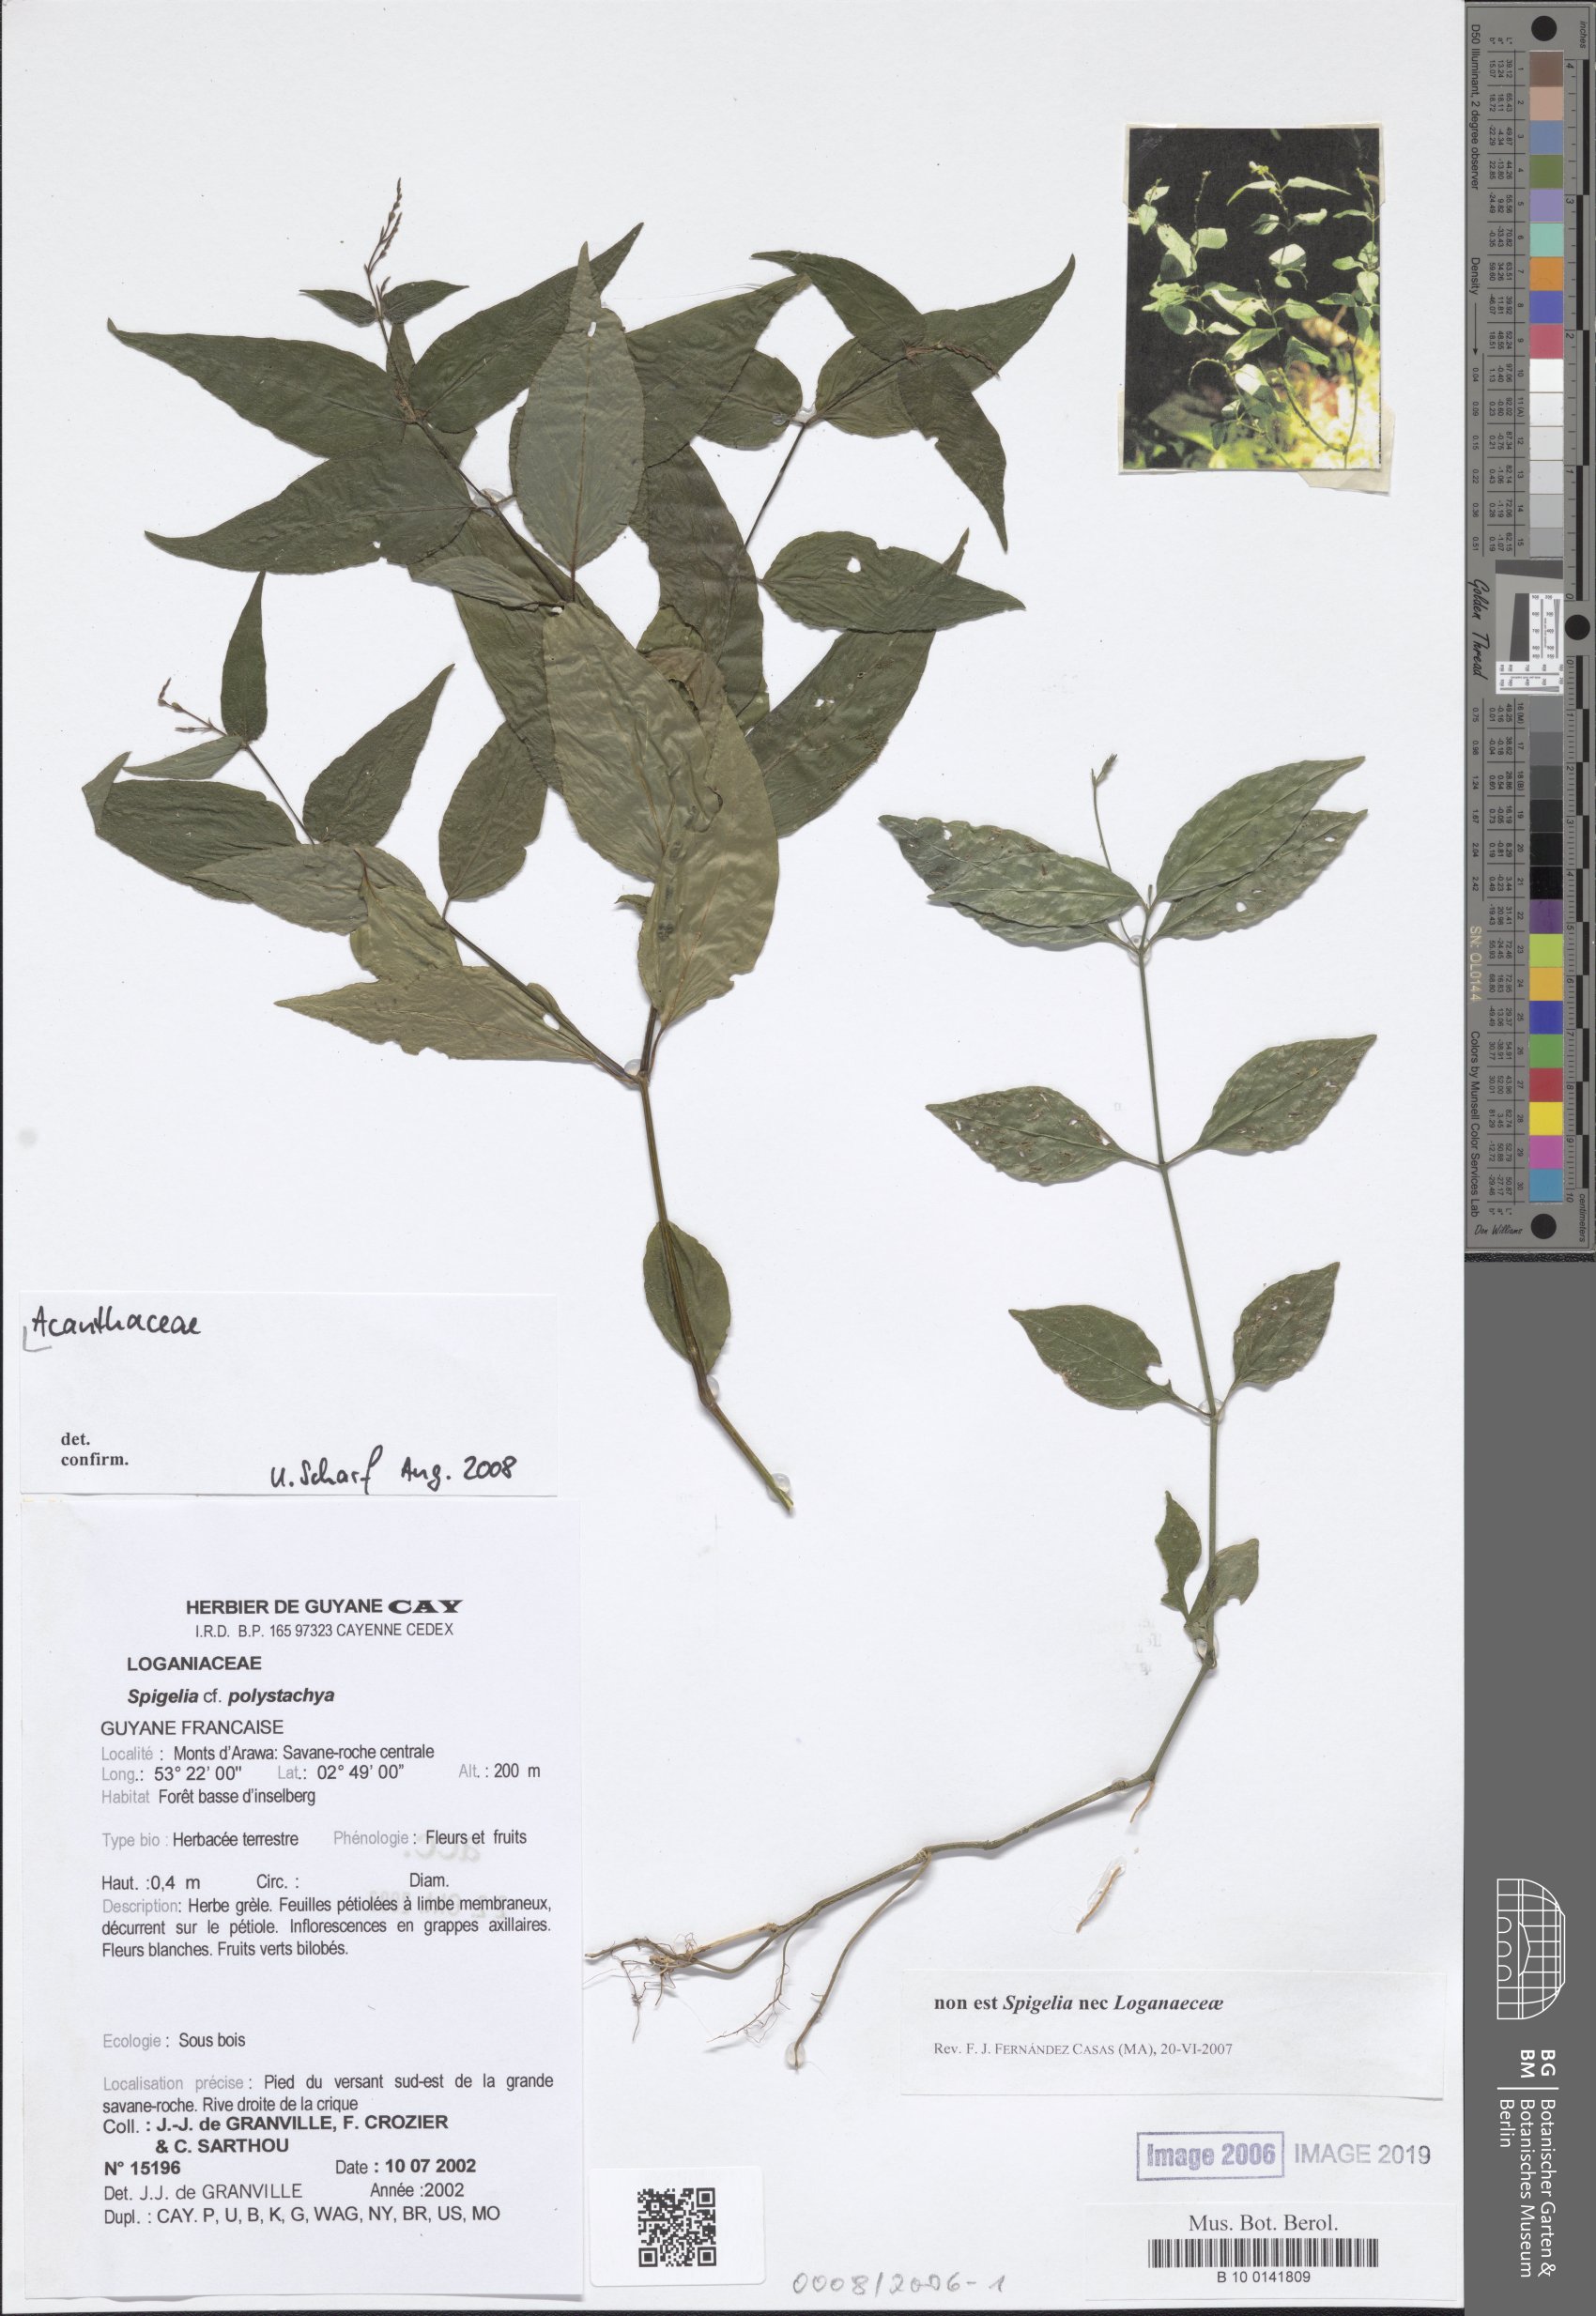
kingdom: Plantae
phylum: Tracheophyta
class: Magnoliopsida
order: Gentianales
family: Loganiaceae
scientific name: Loganiaceae
